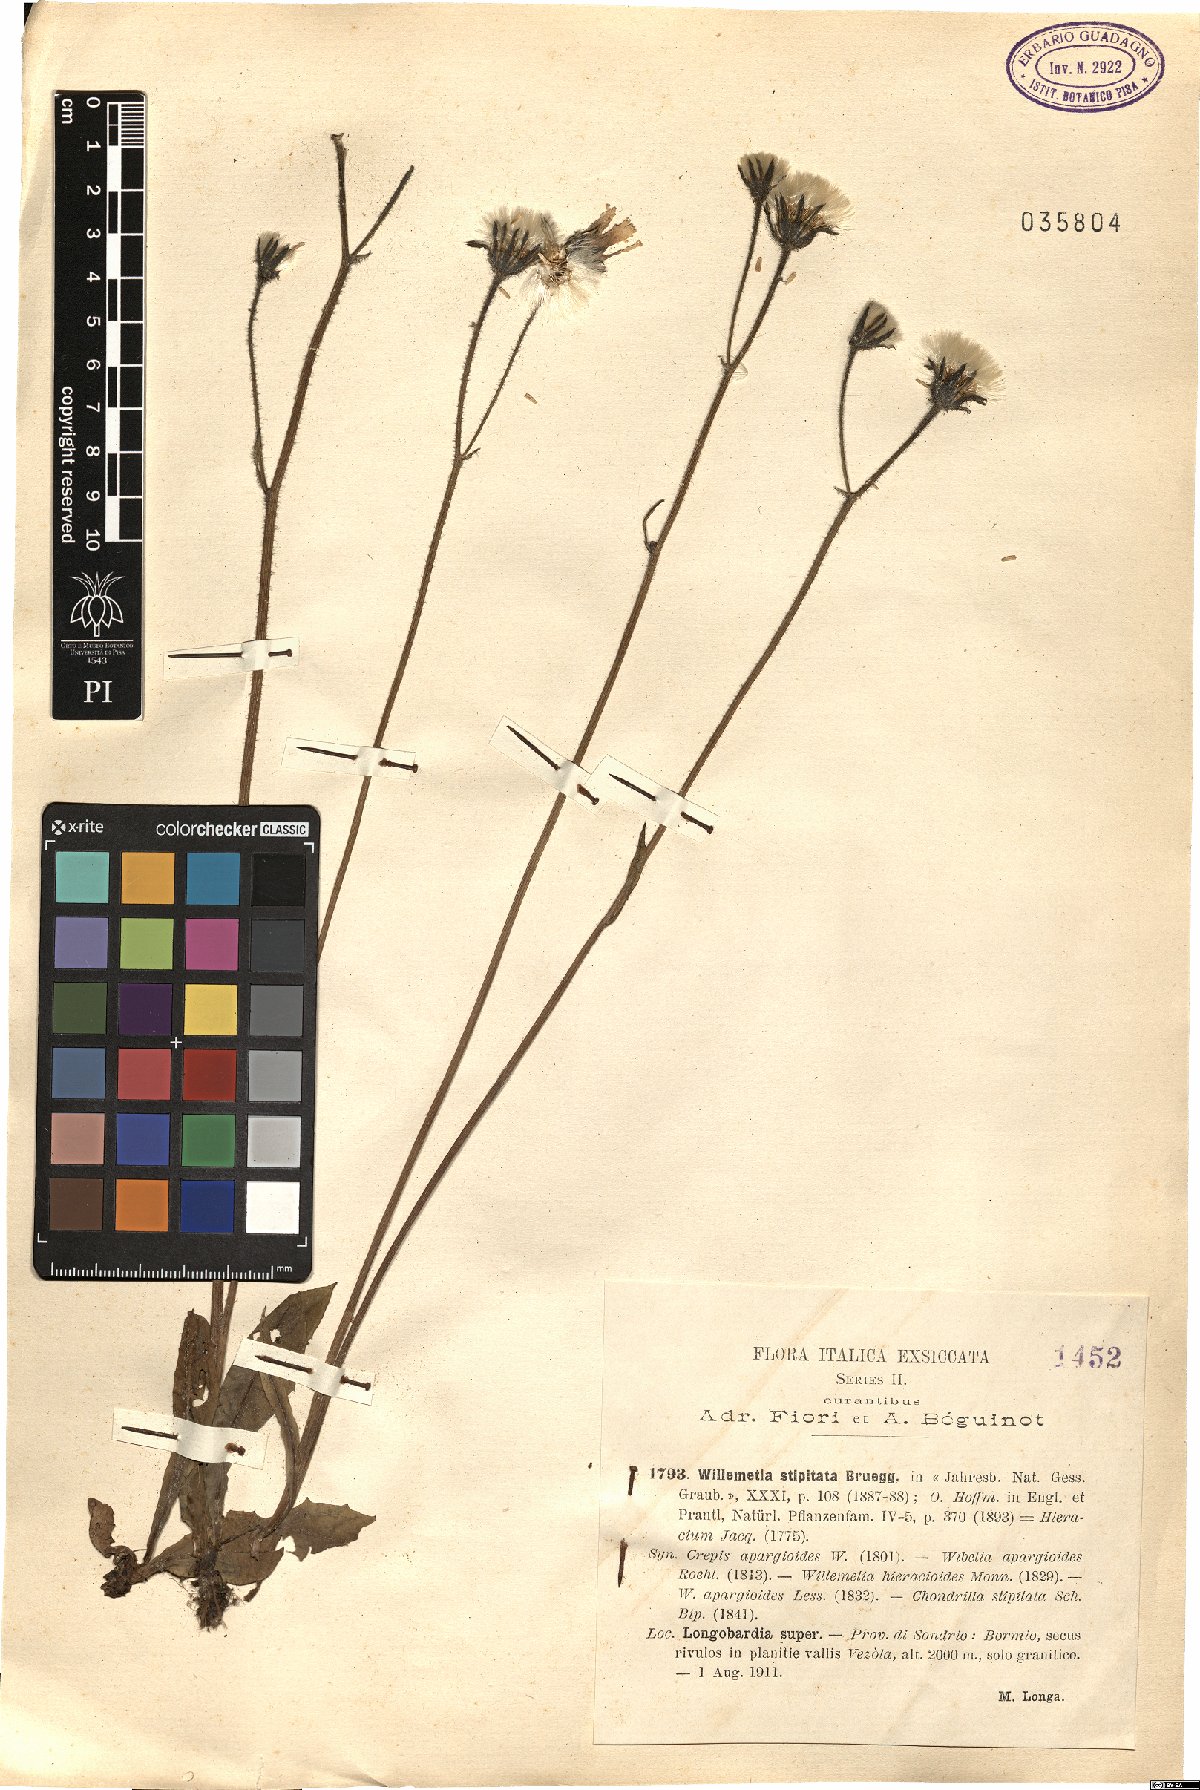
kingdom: Plantae
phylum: Tracheophyta
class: Magnoliopsida
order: Asterales
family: Asteraceae
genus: Willemetia
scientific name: Willemetia stipitata
